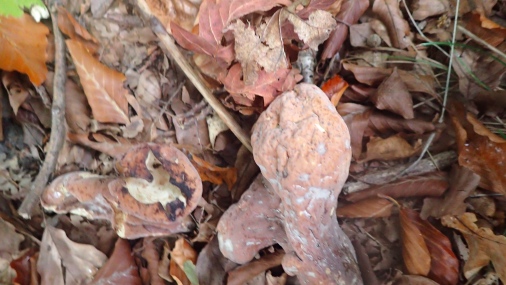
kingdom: Fungi
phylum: Basidiomycota
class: Agaricomycetes
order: Gomphales
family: Clavariadelphaceae
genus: Clavariadelphus
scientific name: Clavariadelphus pistillaris
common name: herkules-kæmpekølle
